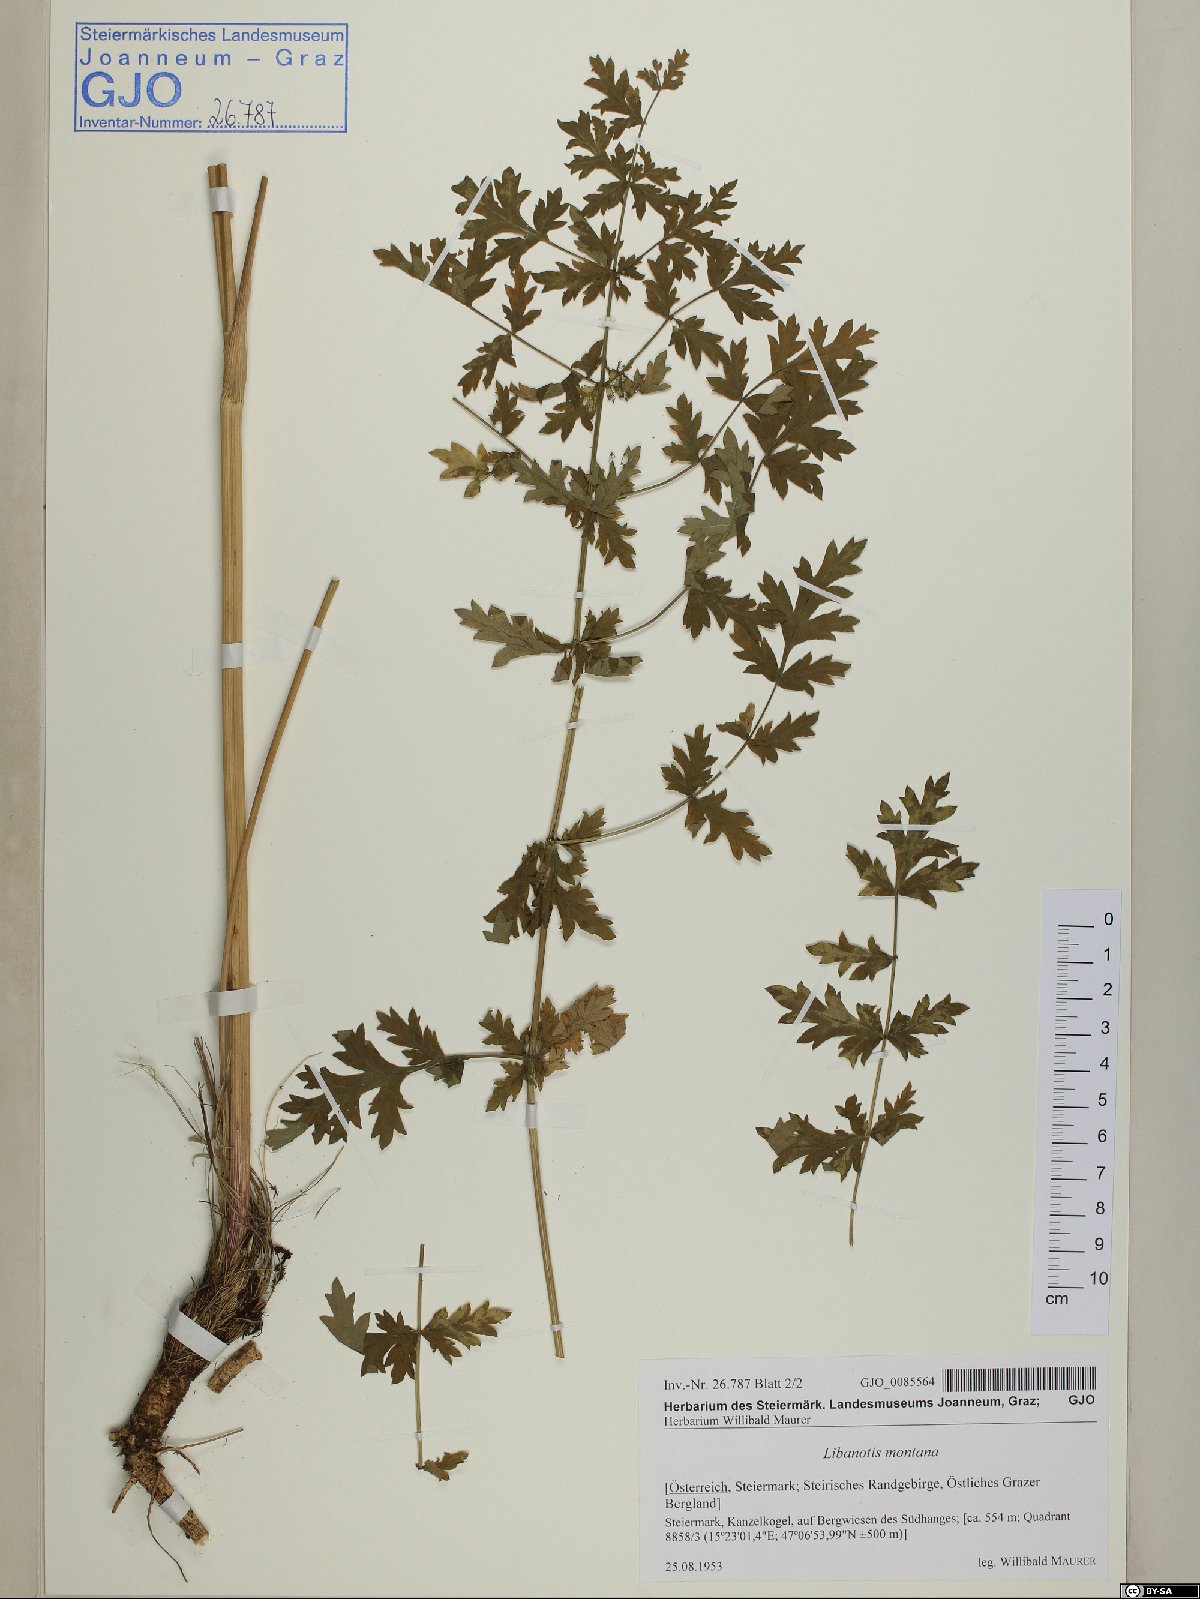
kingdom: Plantae
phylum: Tracheophyta
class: Magnoliopsida
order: Apiales
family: Apiaceae
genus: Seseli
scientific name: Seseli libanotis
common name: Mooncarrot
